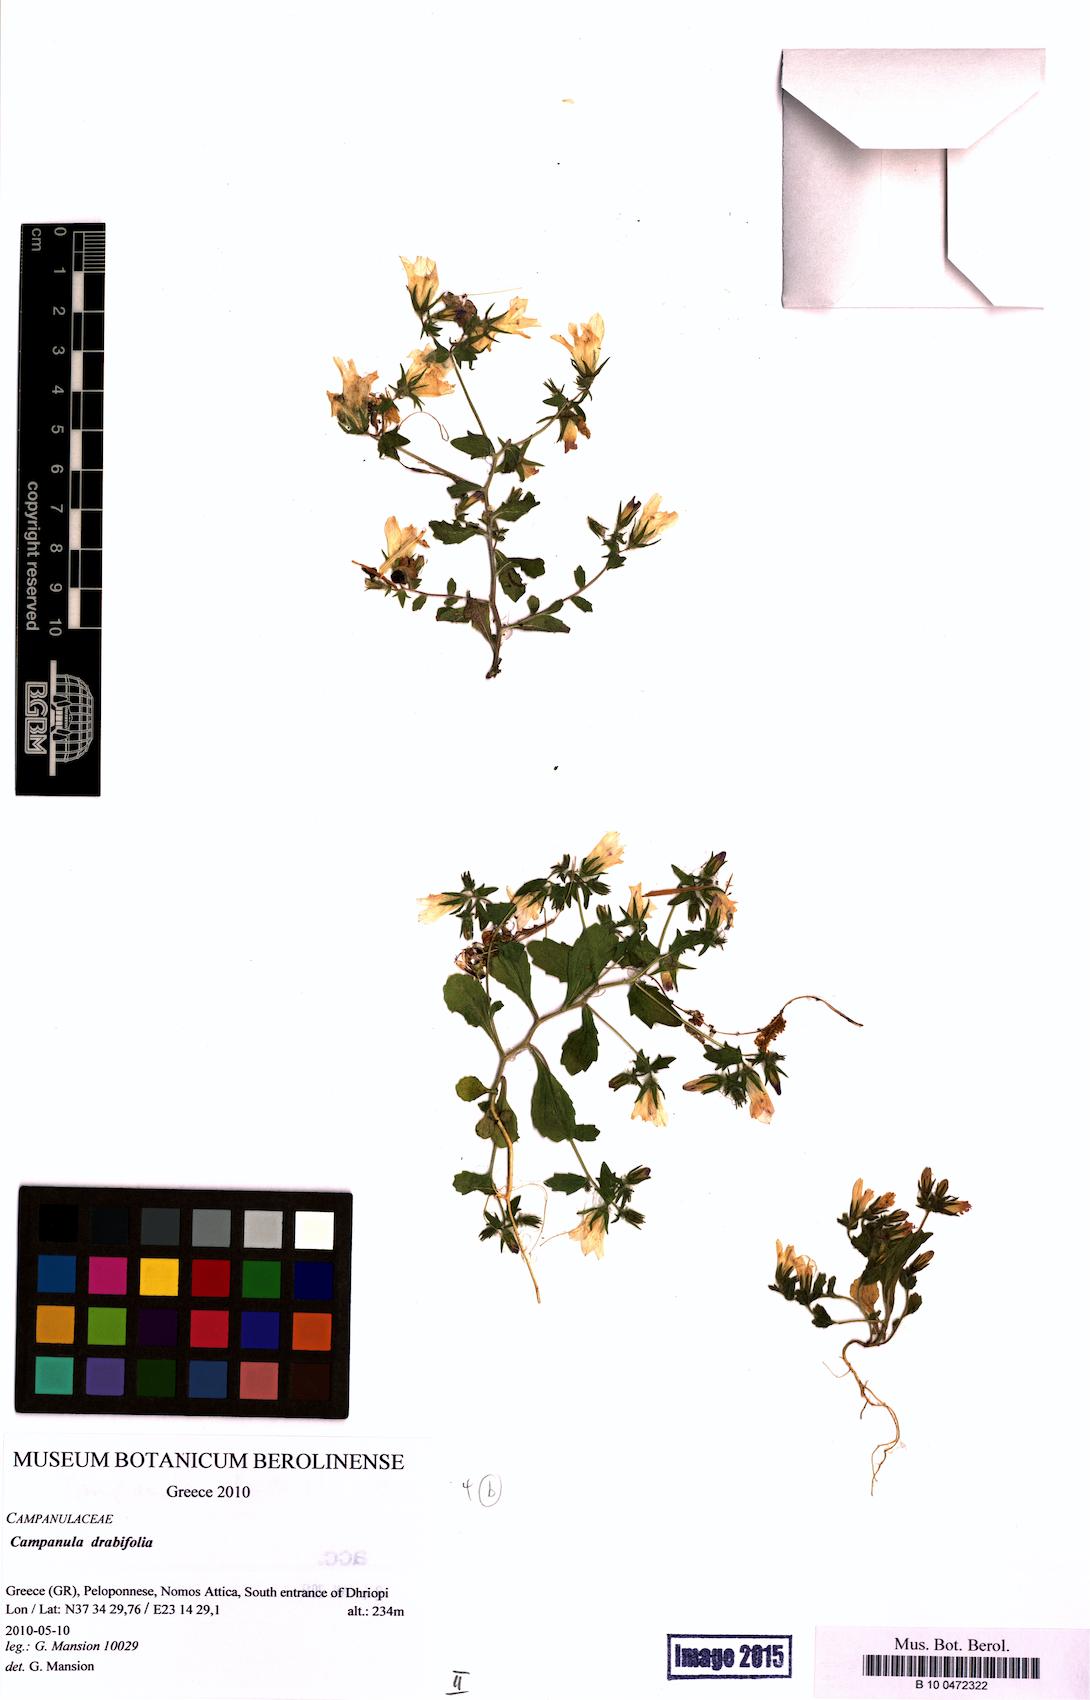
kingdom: Plantae
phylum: Tracheophyta
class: Magnoliopsida
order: Asterales
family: Campanulaceae
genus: Campanula
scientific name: Campanula drabifolia
